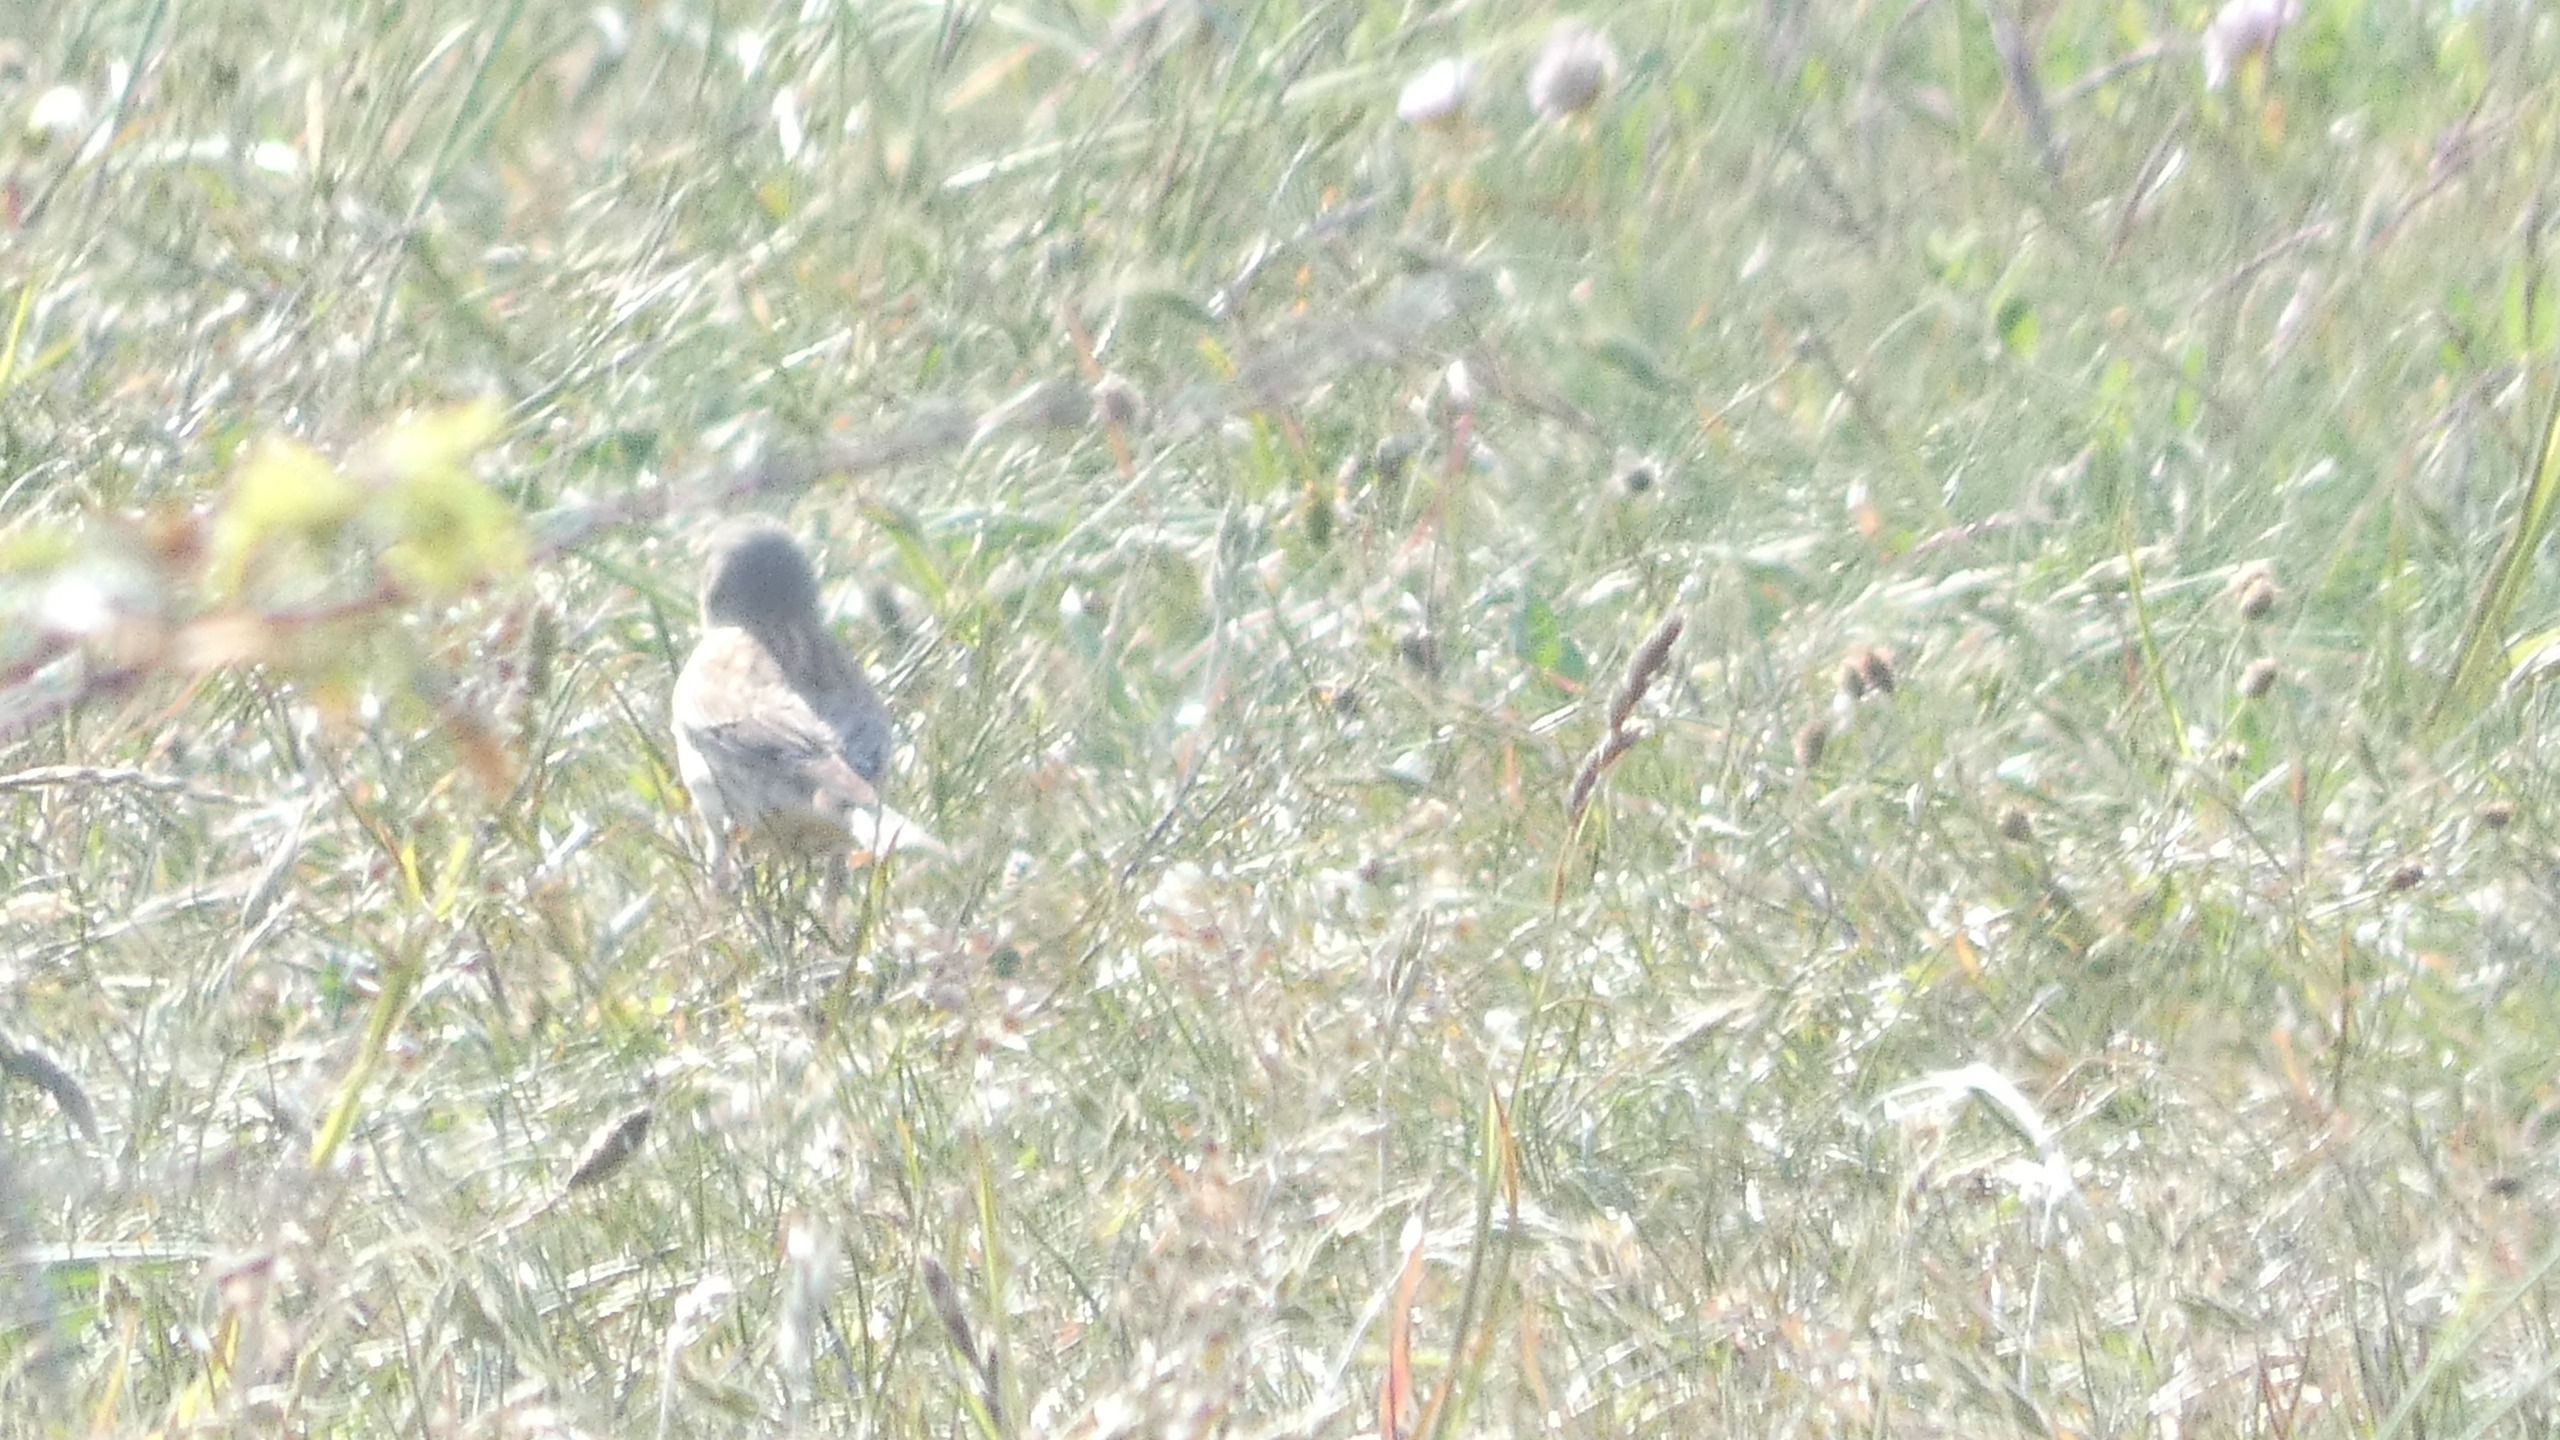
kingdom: Animalia
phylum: Chordata
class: Aves
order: Passeriformes
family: Fringillidae
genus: Linaria
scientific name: Linaria cannabina
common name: Tornirisk
